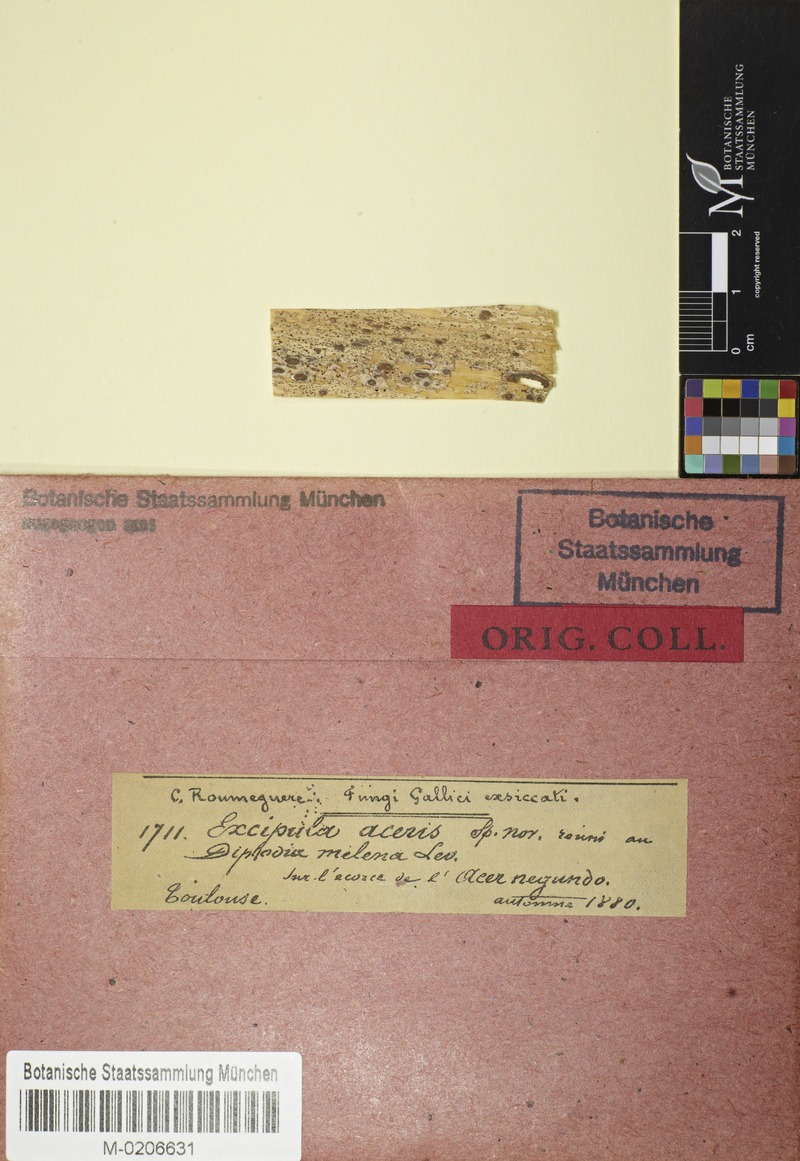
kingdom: Fungi
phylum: Ascomycota
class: Leotiomycetes
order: Helotiales
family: Ploettnerulaceae
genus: Pyrenopeziza
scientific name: Pyrenopeziza
